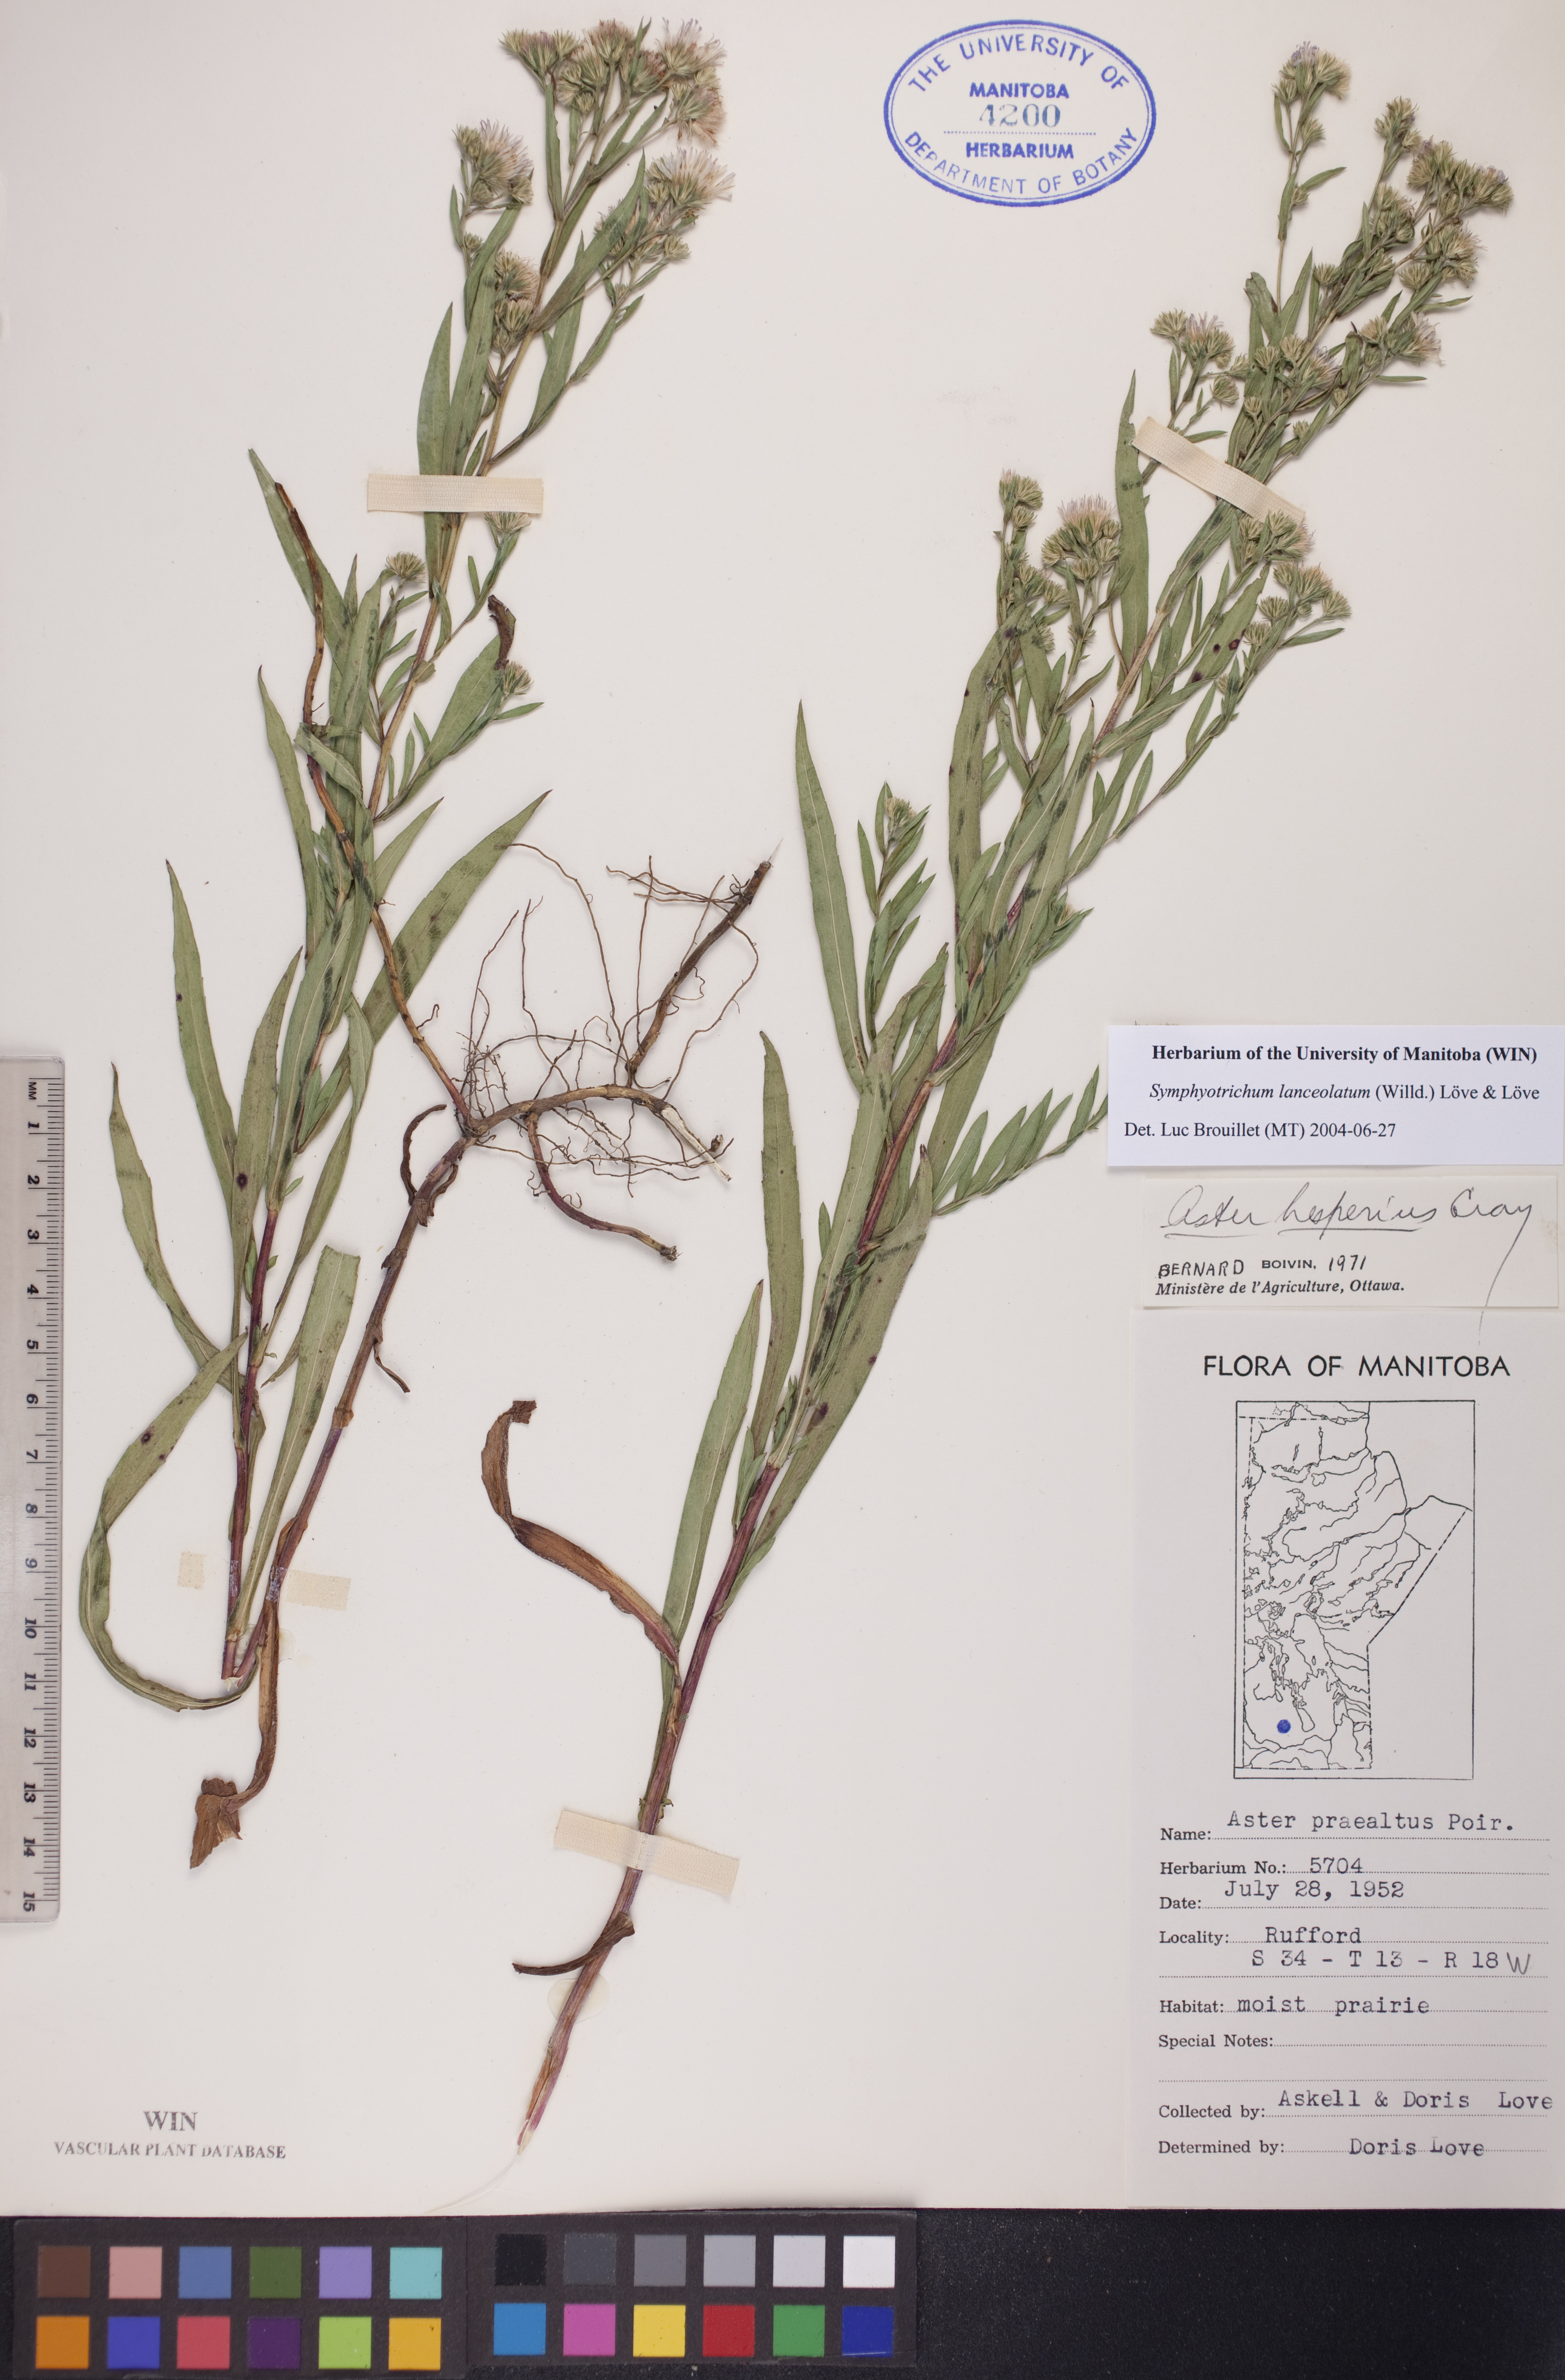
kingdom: Plantae
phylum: Tracheophyta
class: Magnoliopsida
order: Asterales
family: Asteraceae
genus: Symphyotrichum
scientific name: Symphyotrichum lanceolatum
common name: Panicled aster
